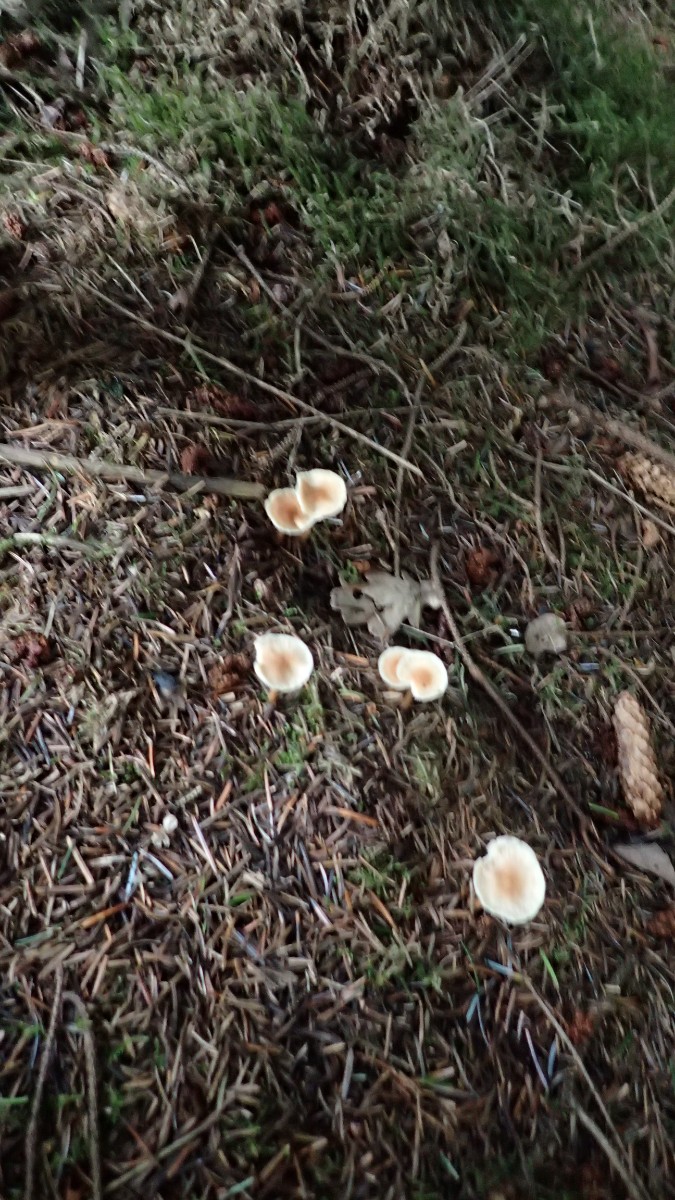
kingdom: Fungi
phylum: Basidiomycota
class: Agaricomycetes
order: Agaricales
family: Omphalotaceae
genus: Gymnopus
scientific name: Gymnopus dryophilus
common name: løv-fladhat
